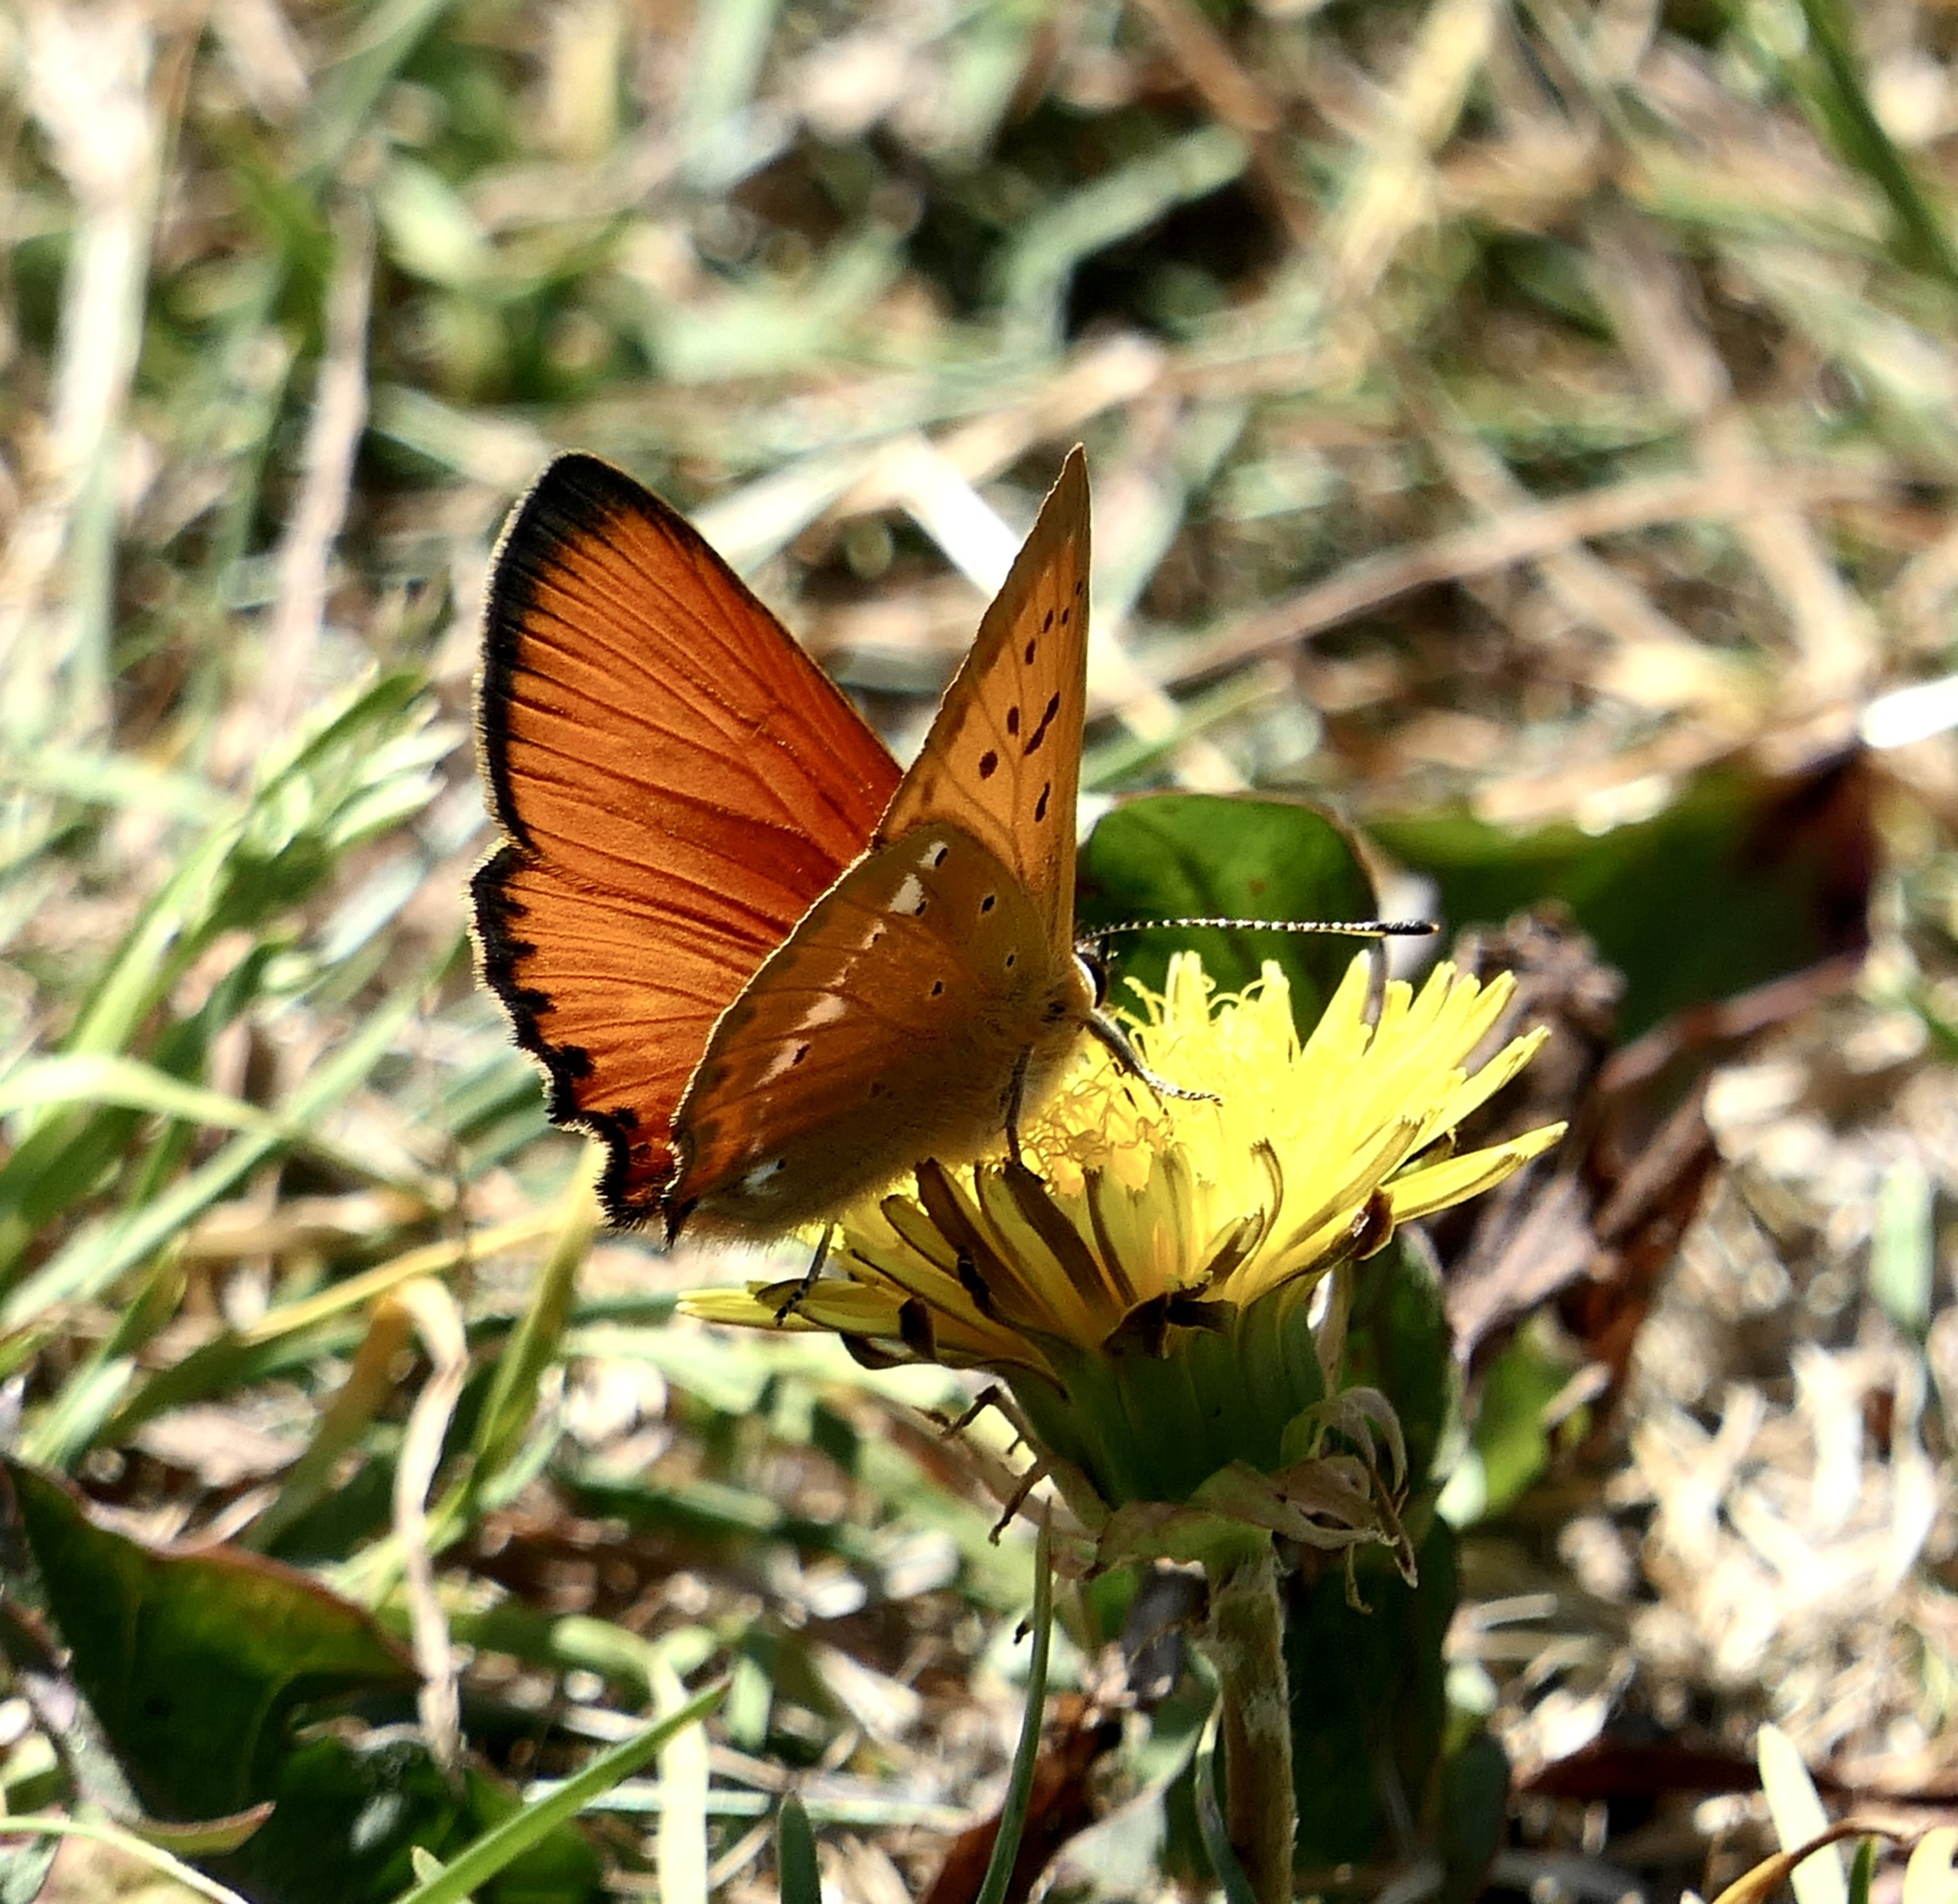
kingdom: Animalia
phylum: Arthropoda
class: Insecta
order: Lepidoptera
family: Lycaenidae
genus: Lycaena
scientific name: Lycaena virgaureae
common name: Dukatsommerfugl
